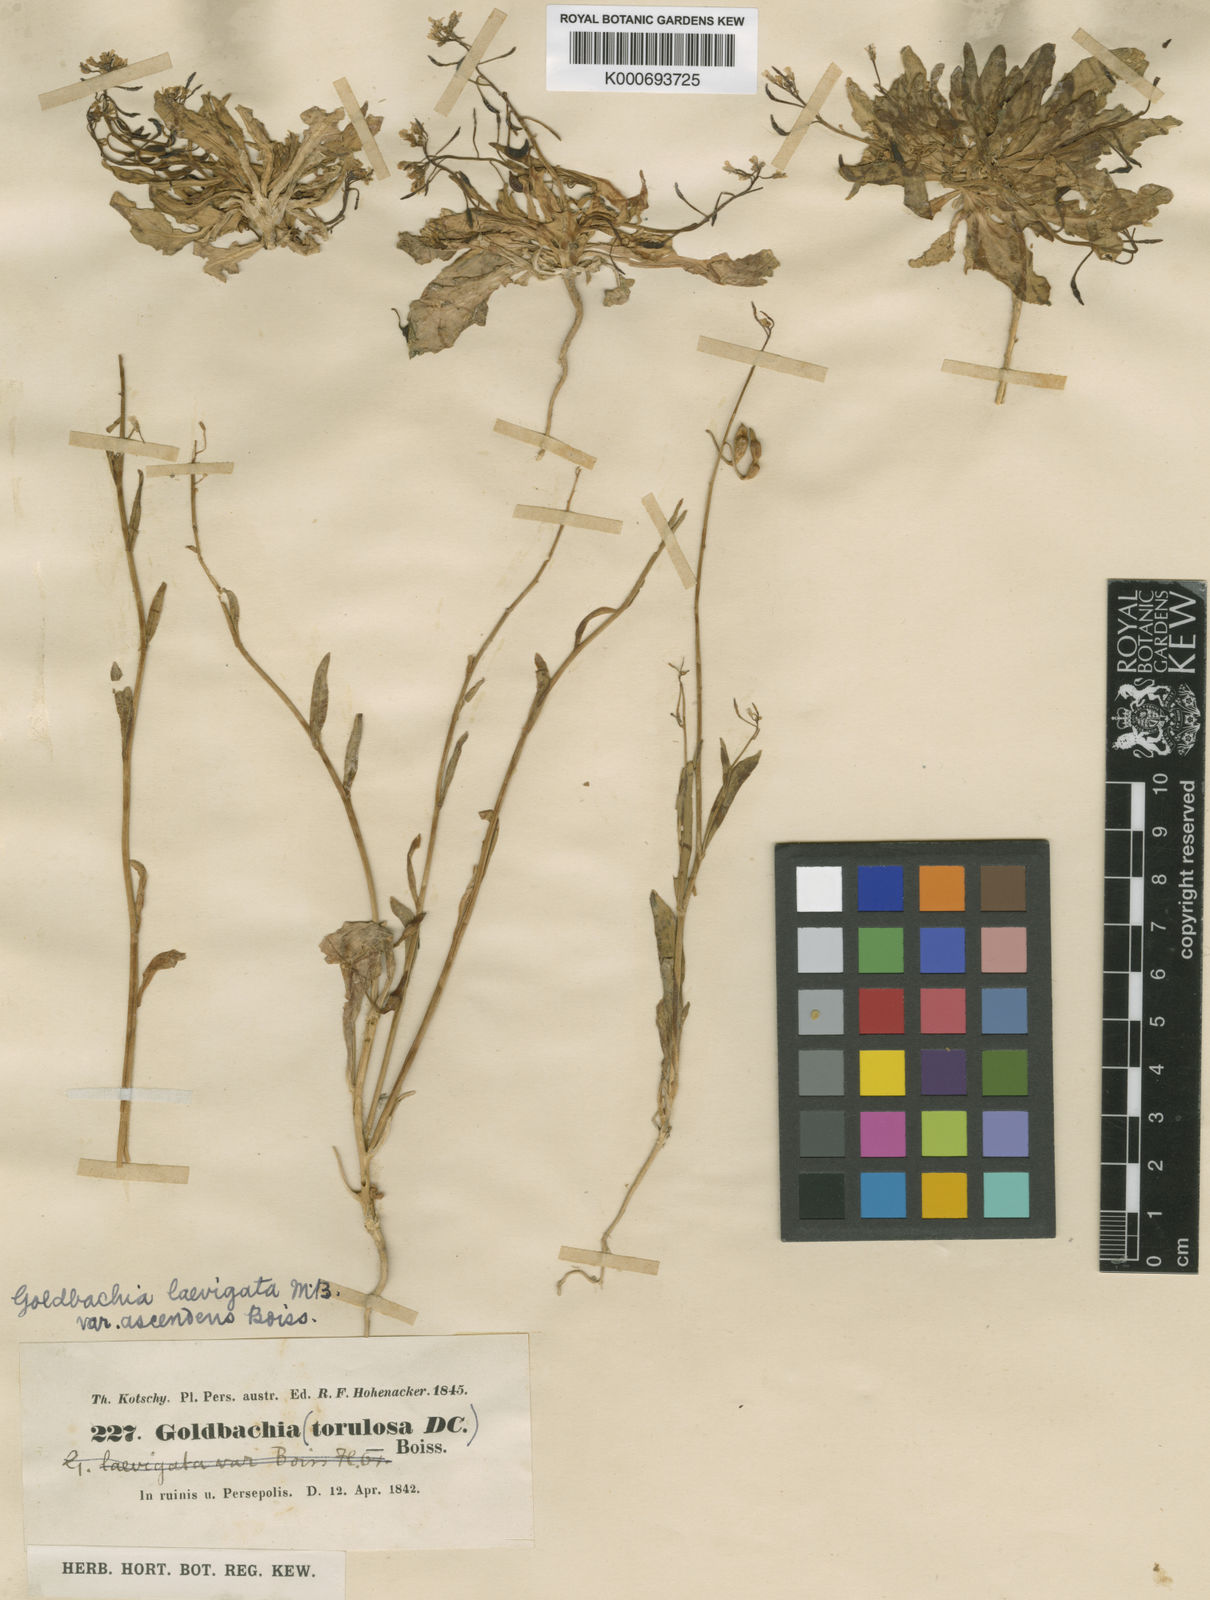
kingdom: Plantae
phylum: Tracheophyta
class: Magnoliopsida
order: Brassicales
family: Brassicaceae
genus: Goldbachia
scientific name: Goldbachia laevigata
